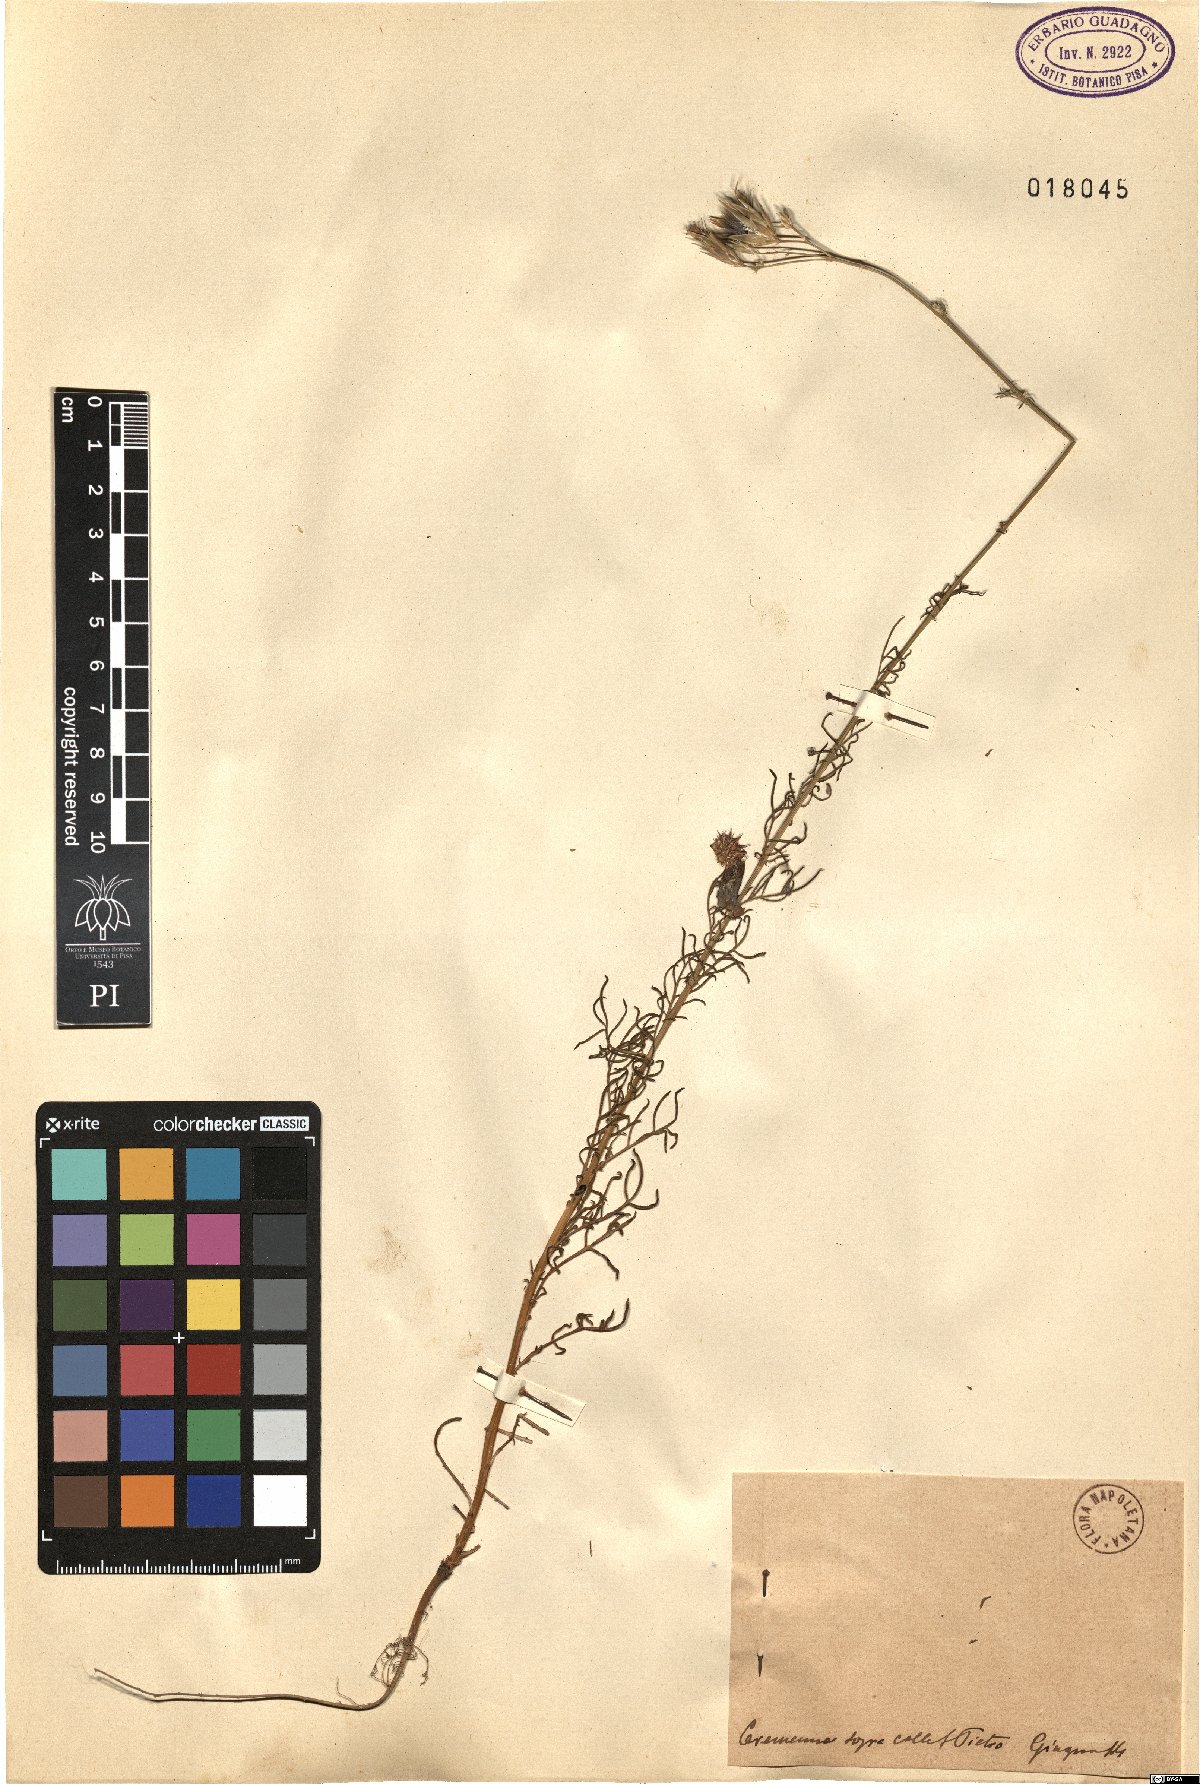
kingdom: Plantae
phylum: Tracheophyta
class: Magnoliopsida
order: Asterales
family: Asteraceae
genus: Crupina
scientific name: Crupina
